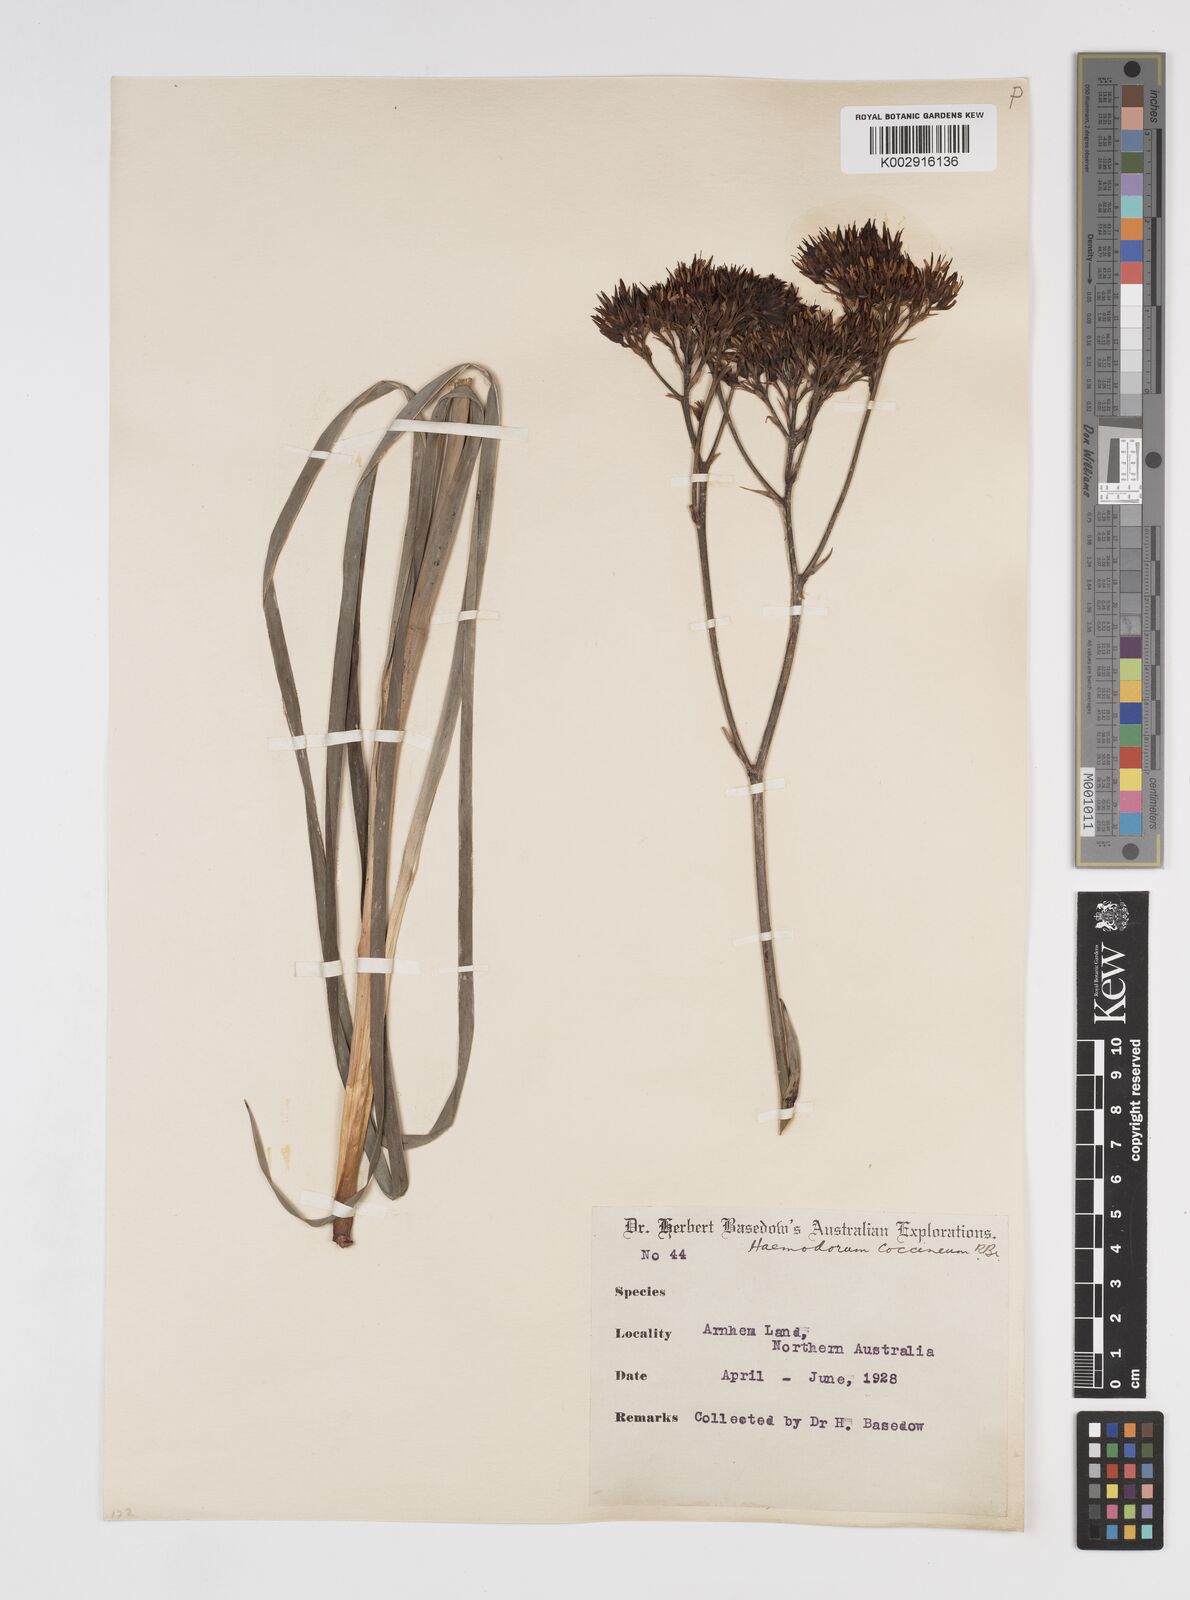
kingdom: Plantae
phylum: Tracheophyta
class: Liliopsida
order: Commelinales
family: Haemodoraceae
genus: Haemodorum
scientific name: Haemodorum coccineum
